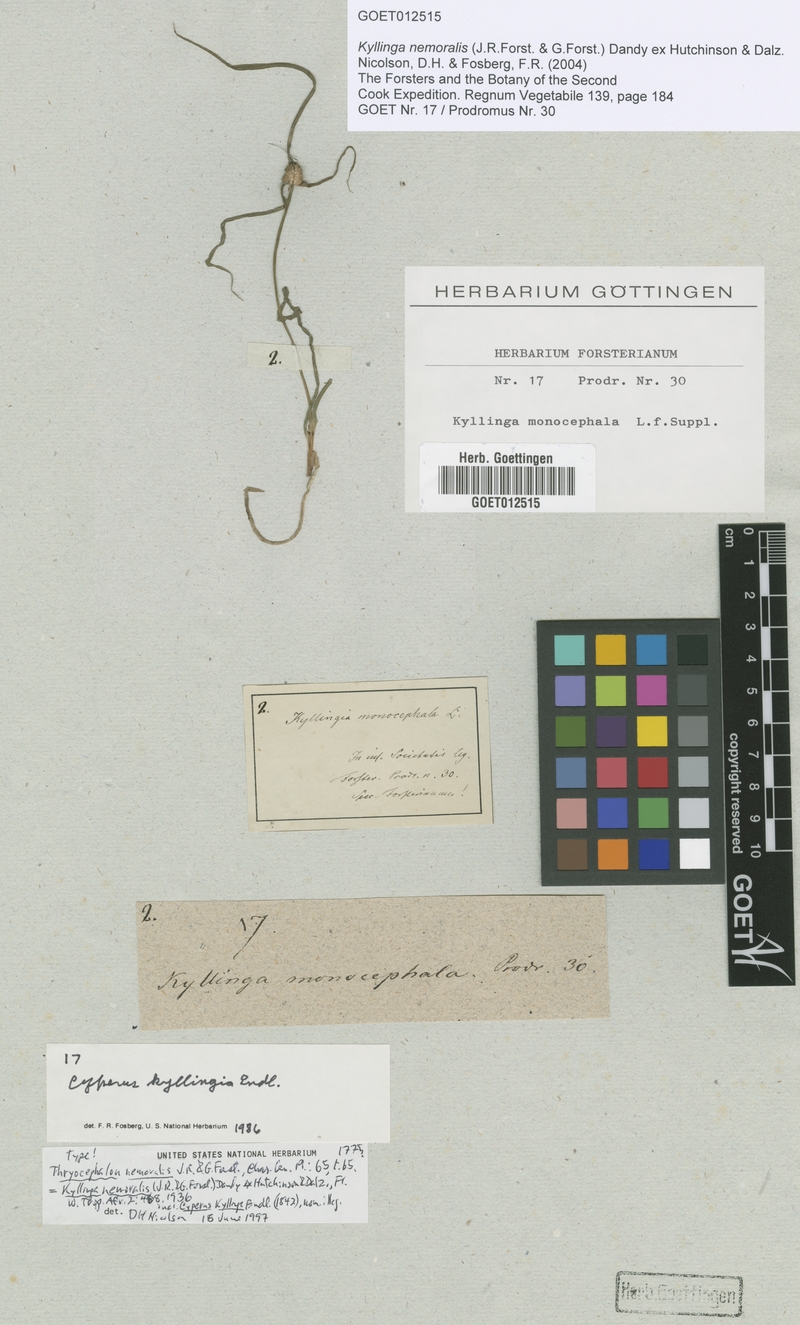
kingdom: Plantae
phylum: Tracheophyta
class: Liliopsida
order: Poales
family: Cyperaceae
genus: Cyperus
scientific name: Cyperus mindorensis
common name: Flatsedge
